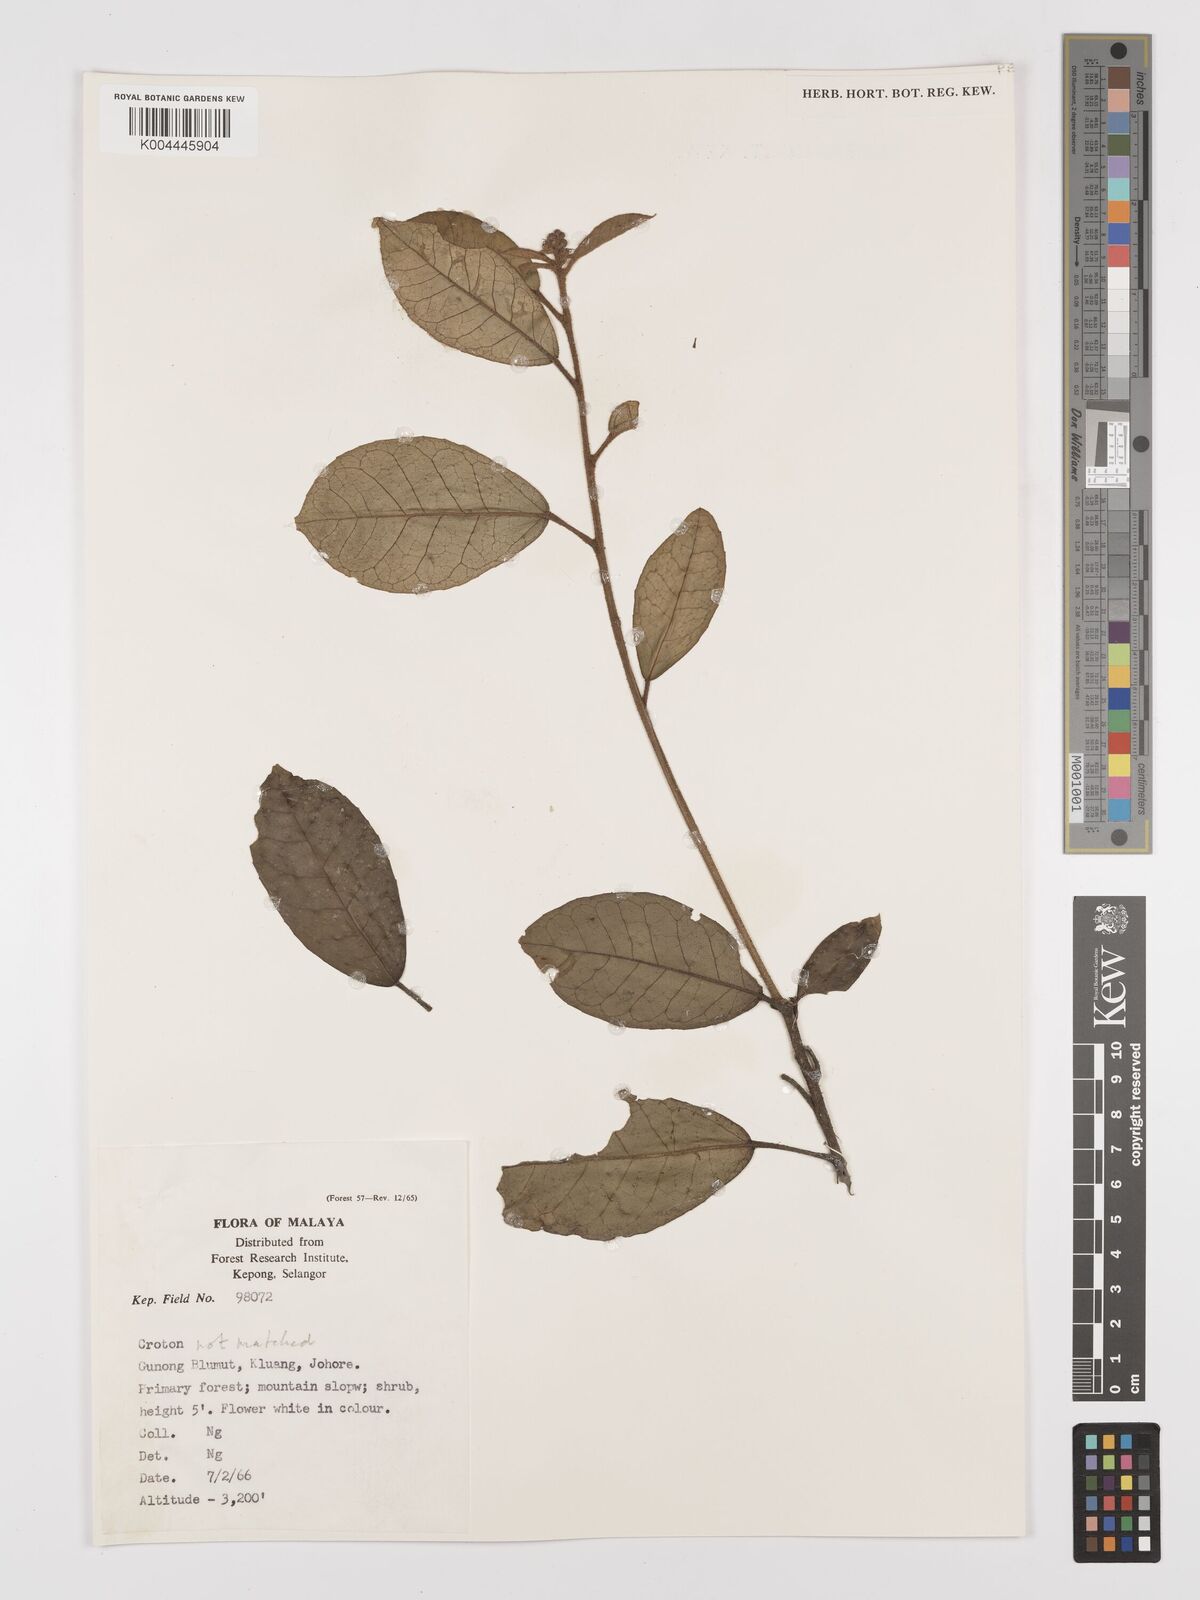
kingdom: Plantae
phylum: Tracheophyta
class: Magnoliopsida
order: Malpighiales
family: Euphorbiaceae
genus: Croton
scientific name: Croton erythrostachys
